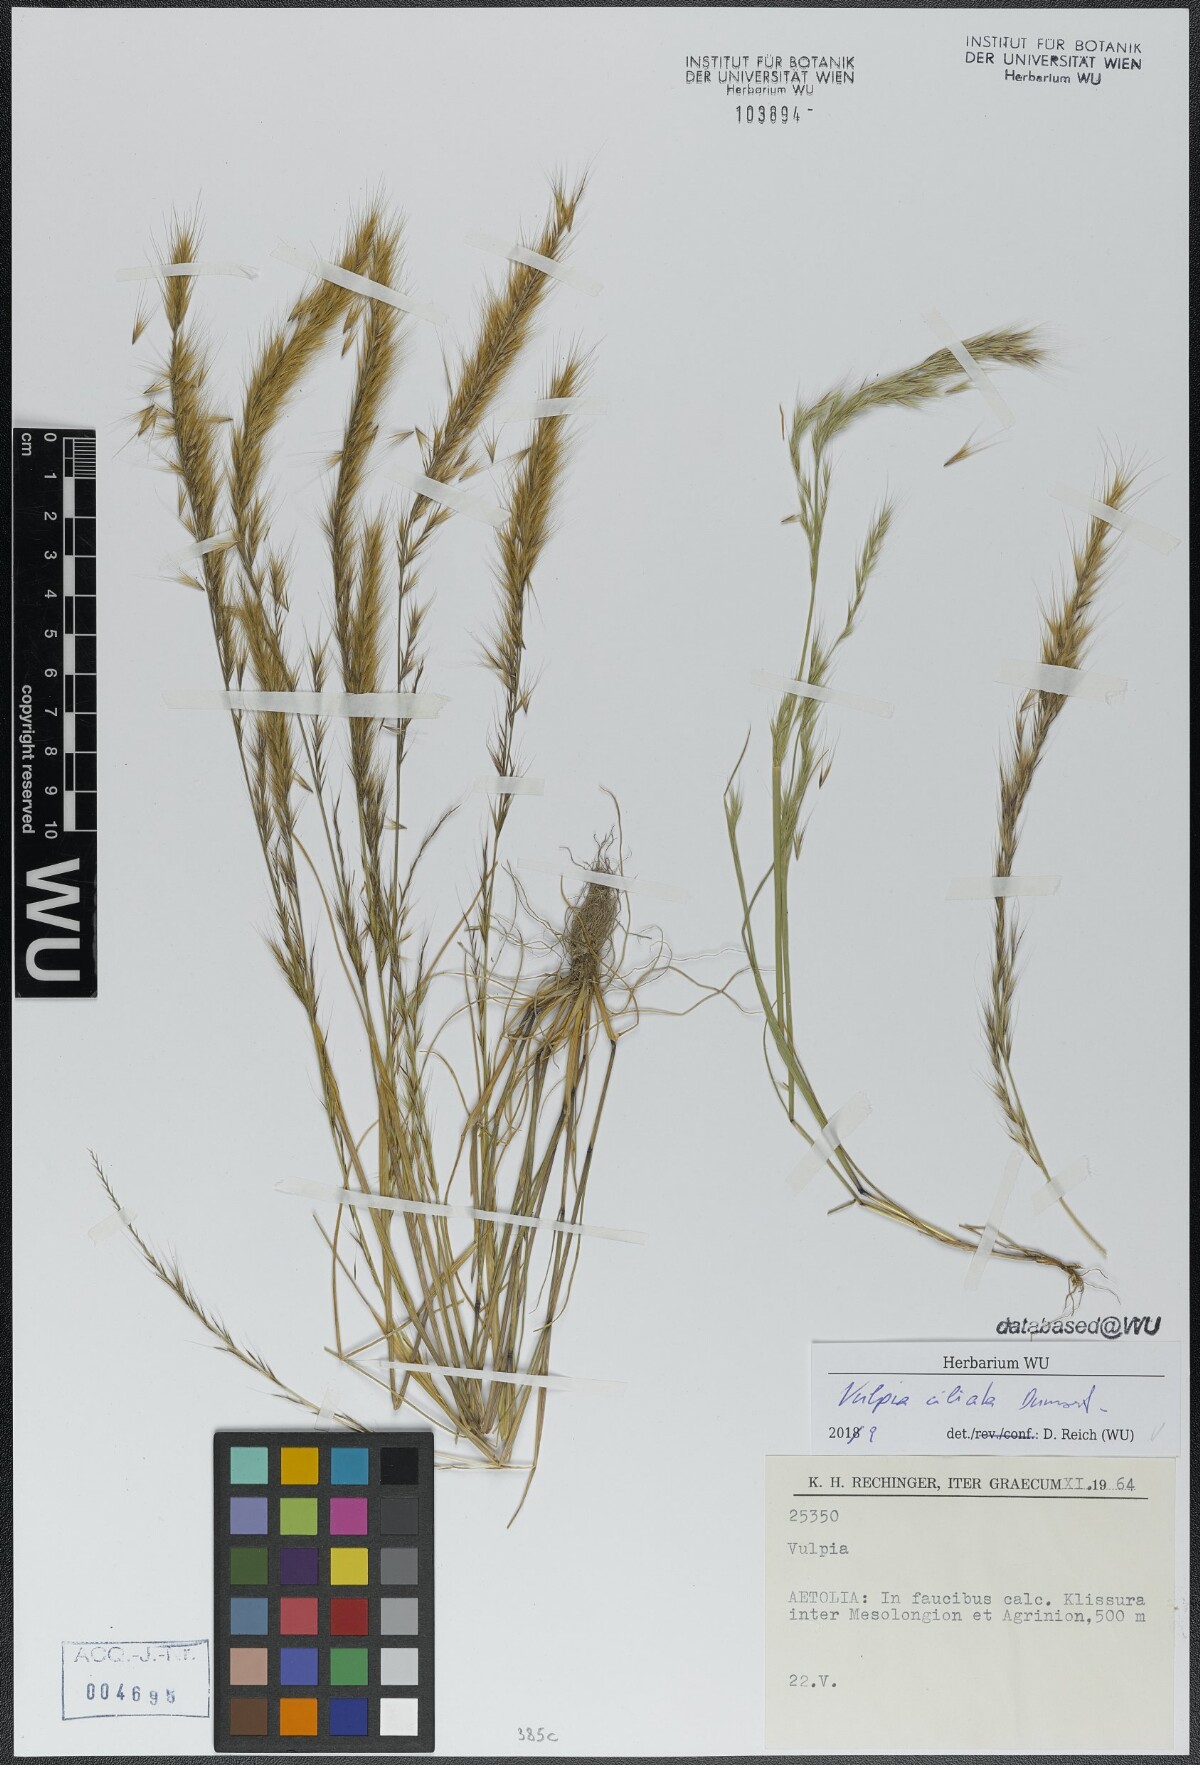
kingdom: Plantae
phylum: Tracheophyta
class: Liliopsida
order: Poales
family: Poaceae
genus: Festuca
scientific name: Festuca ambigua
